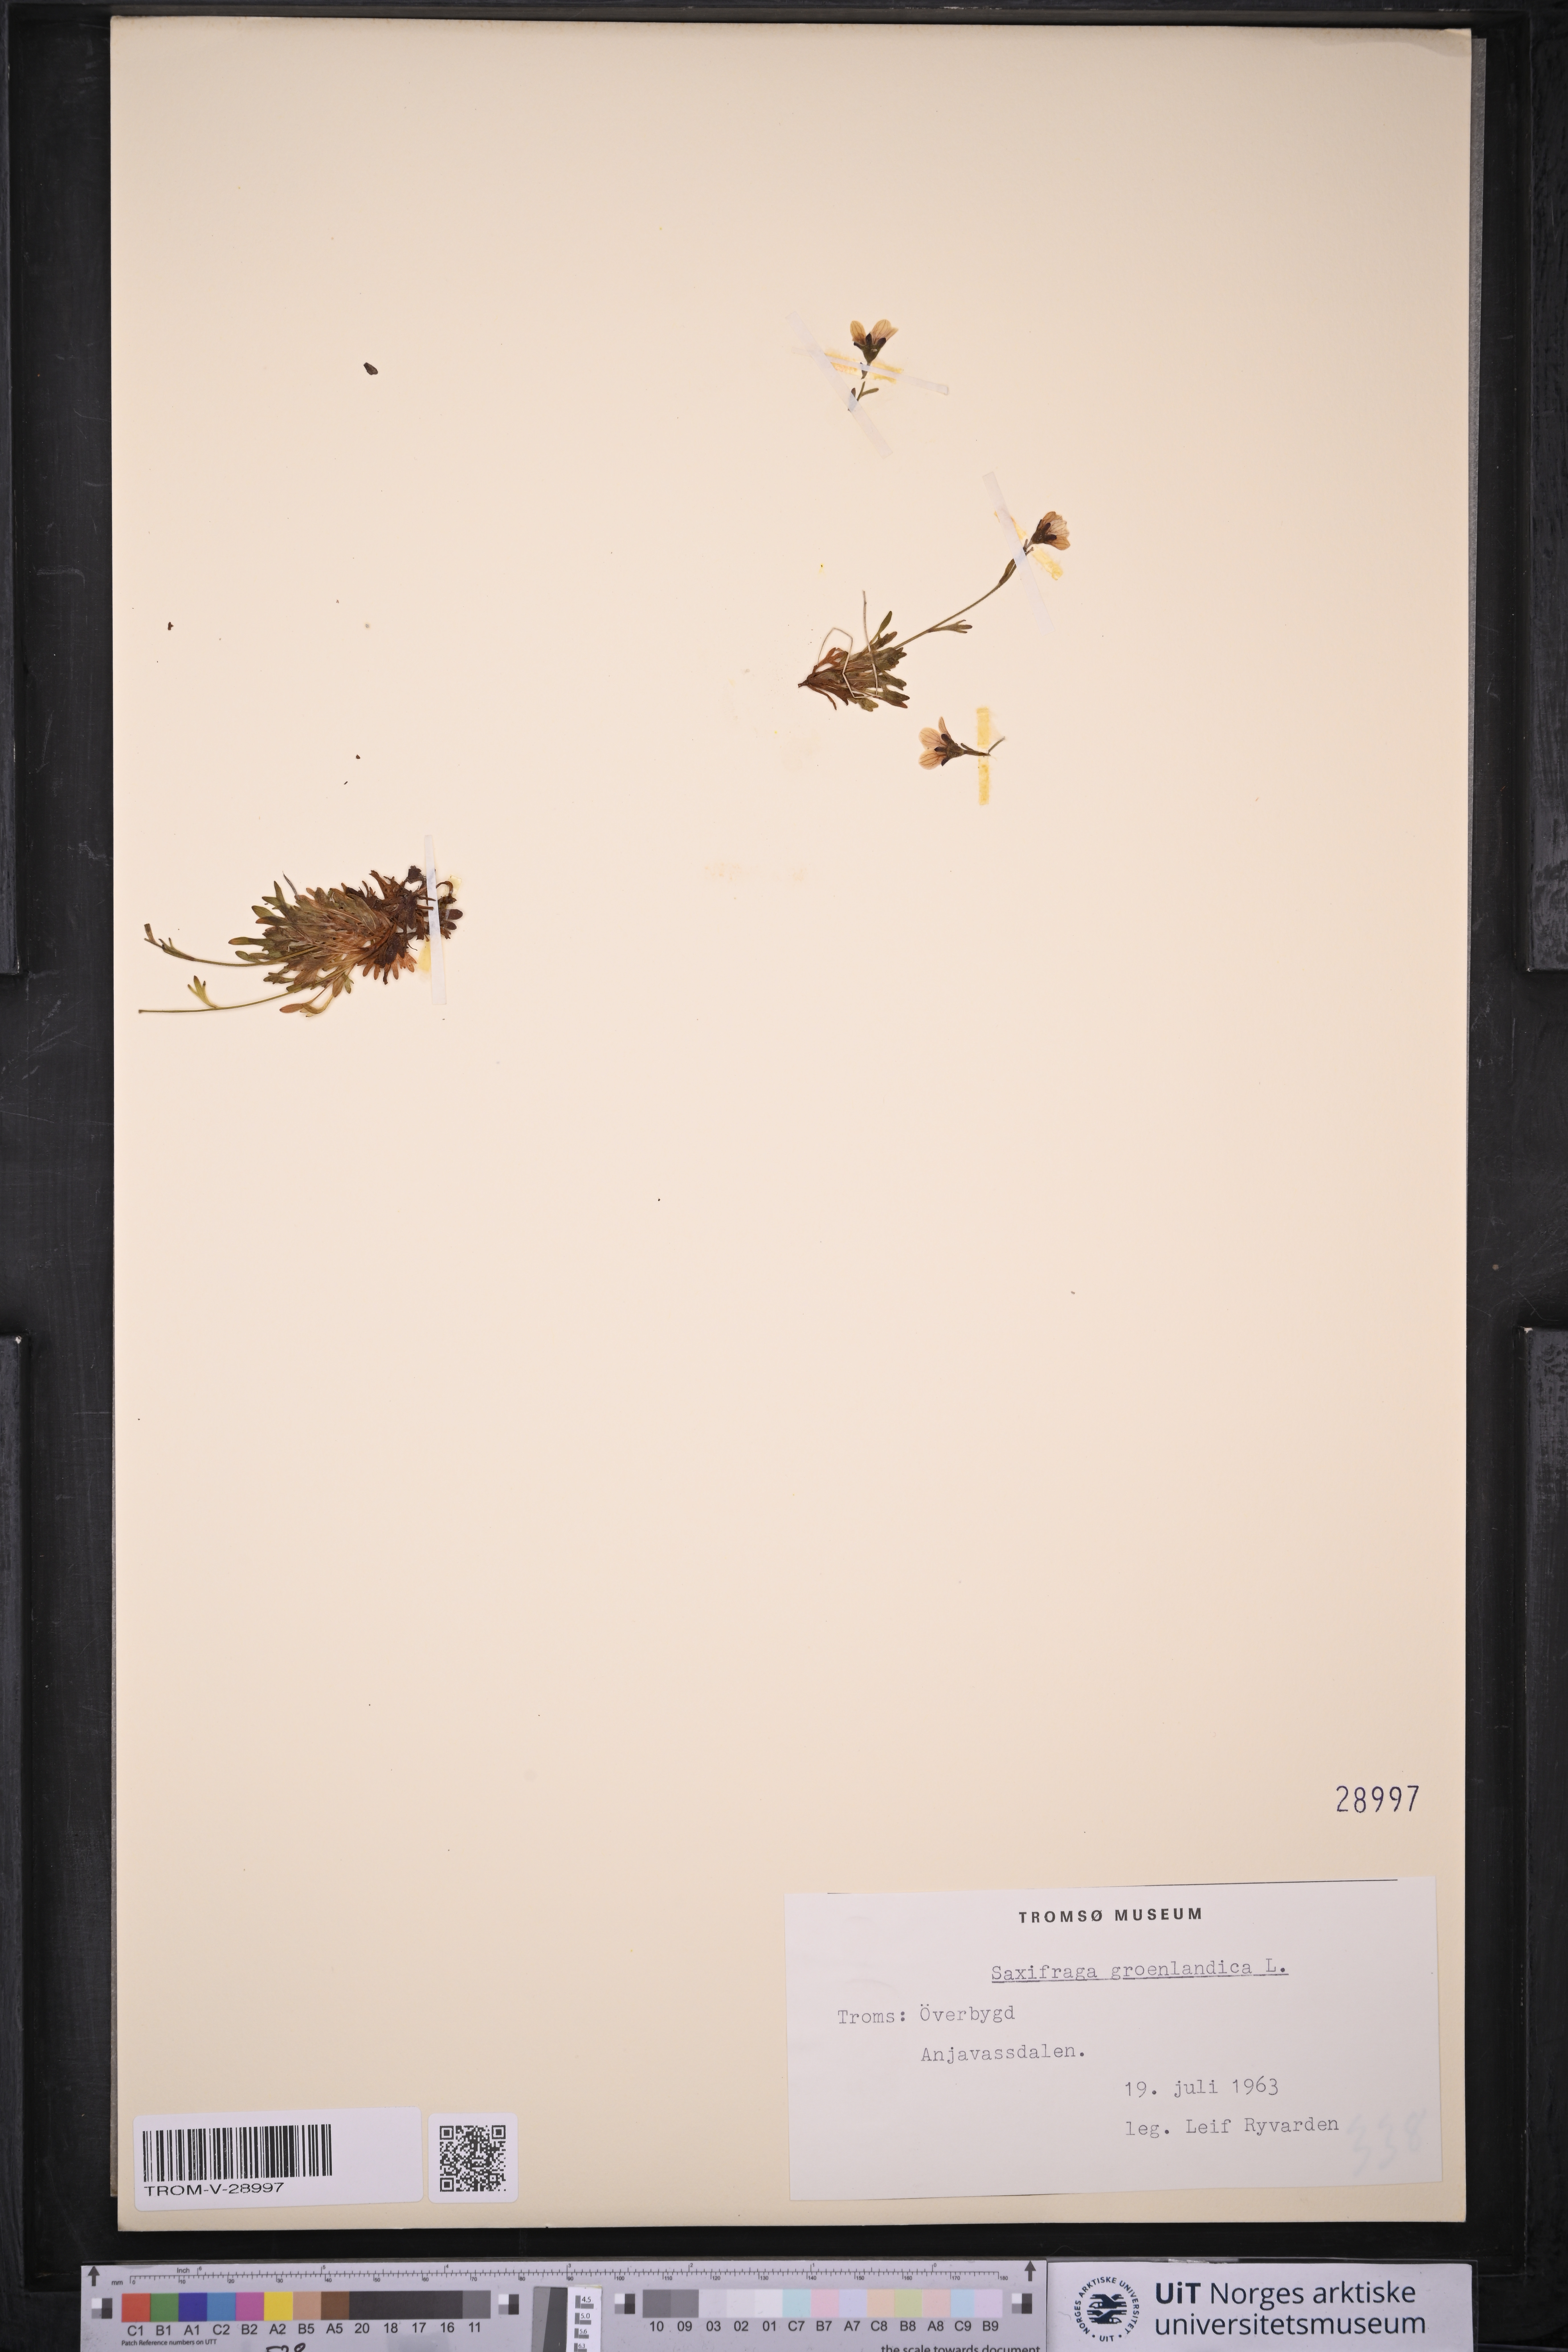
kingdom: Plantae
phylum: Tracheophyta
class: Magnoliopsida
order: Saxifragales
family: Saxifragaceae
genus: Saxifraga
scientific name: Saxifraga cespitosa
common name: Tufted saxifrage
